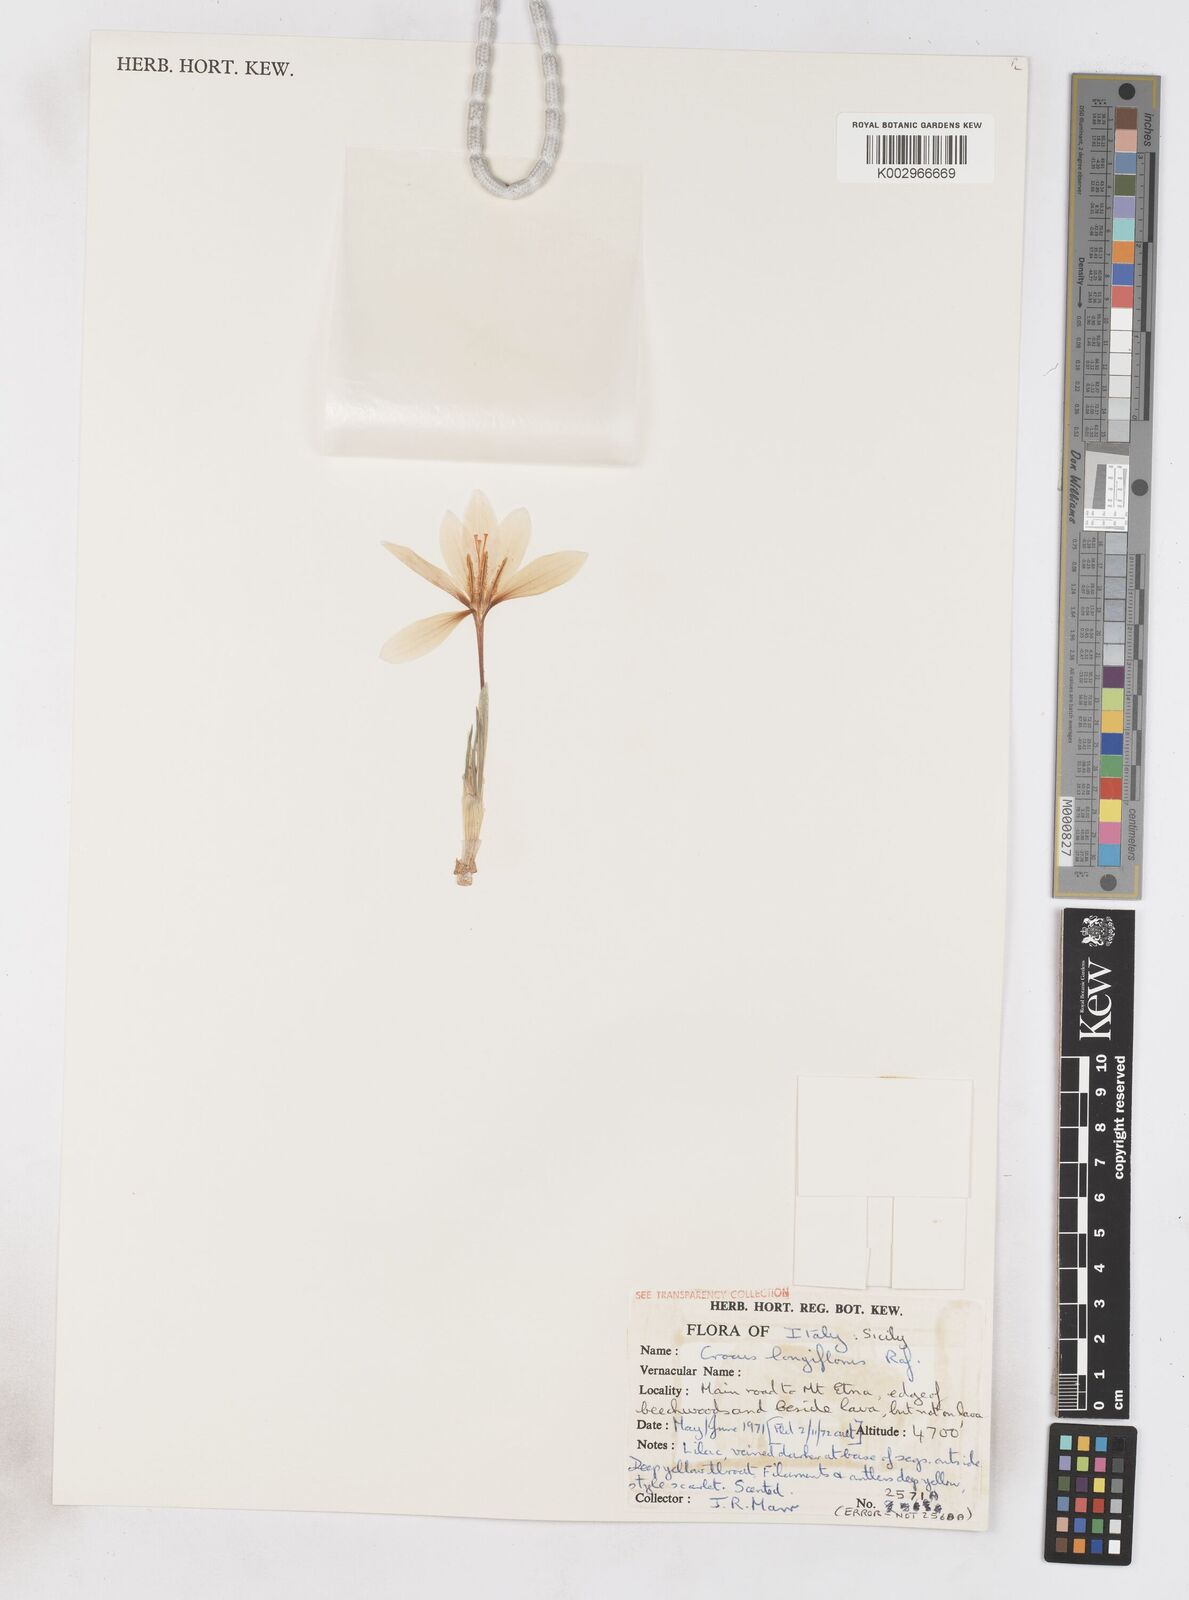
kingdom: Plantae
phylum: Tracheophyta
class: Liliopsida
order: Asparagales
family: Iridaceae
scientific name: Iridaceae
